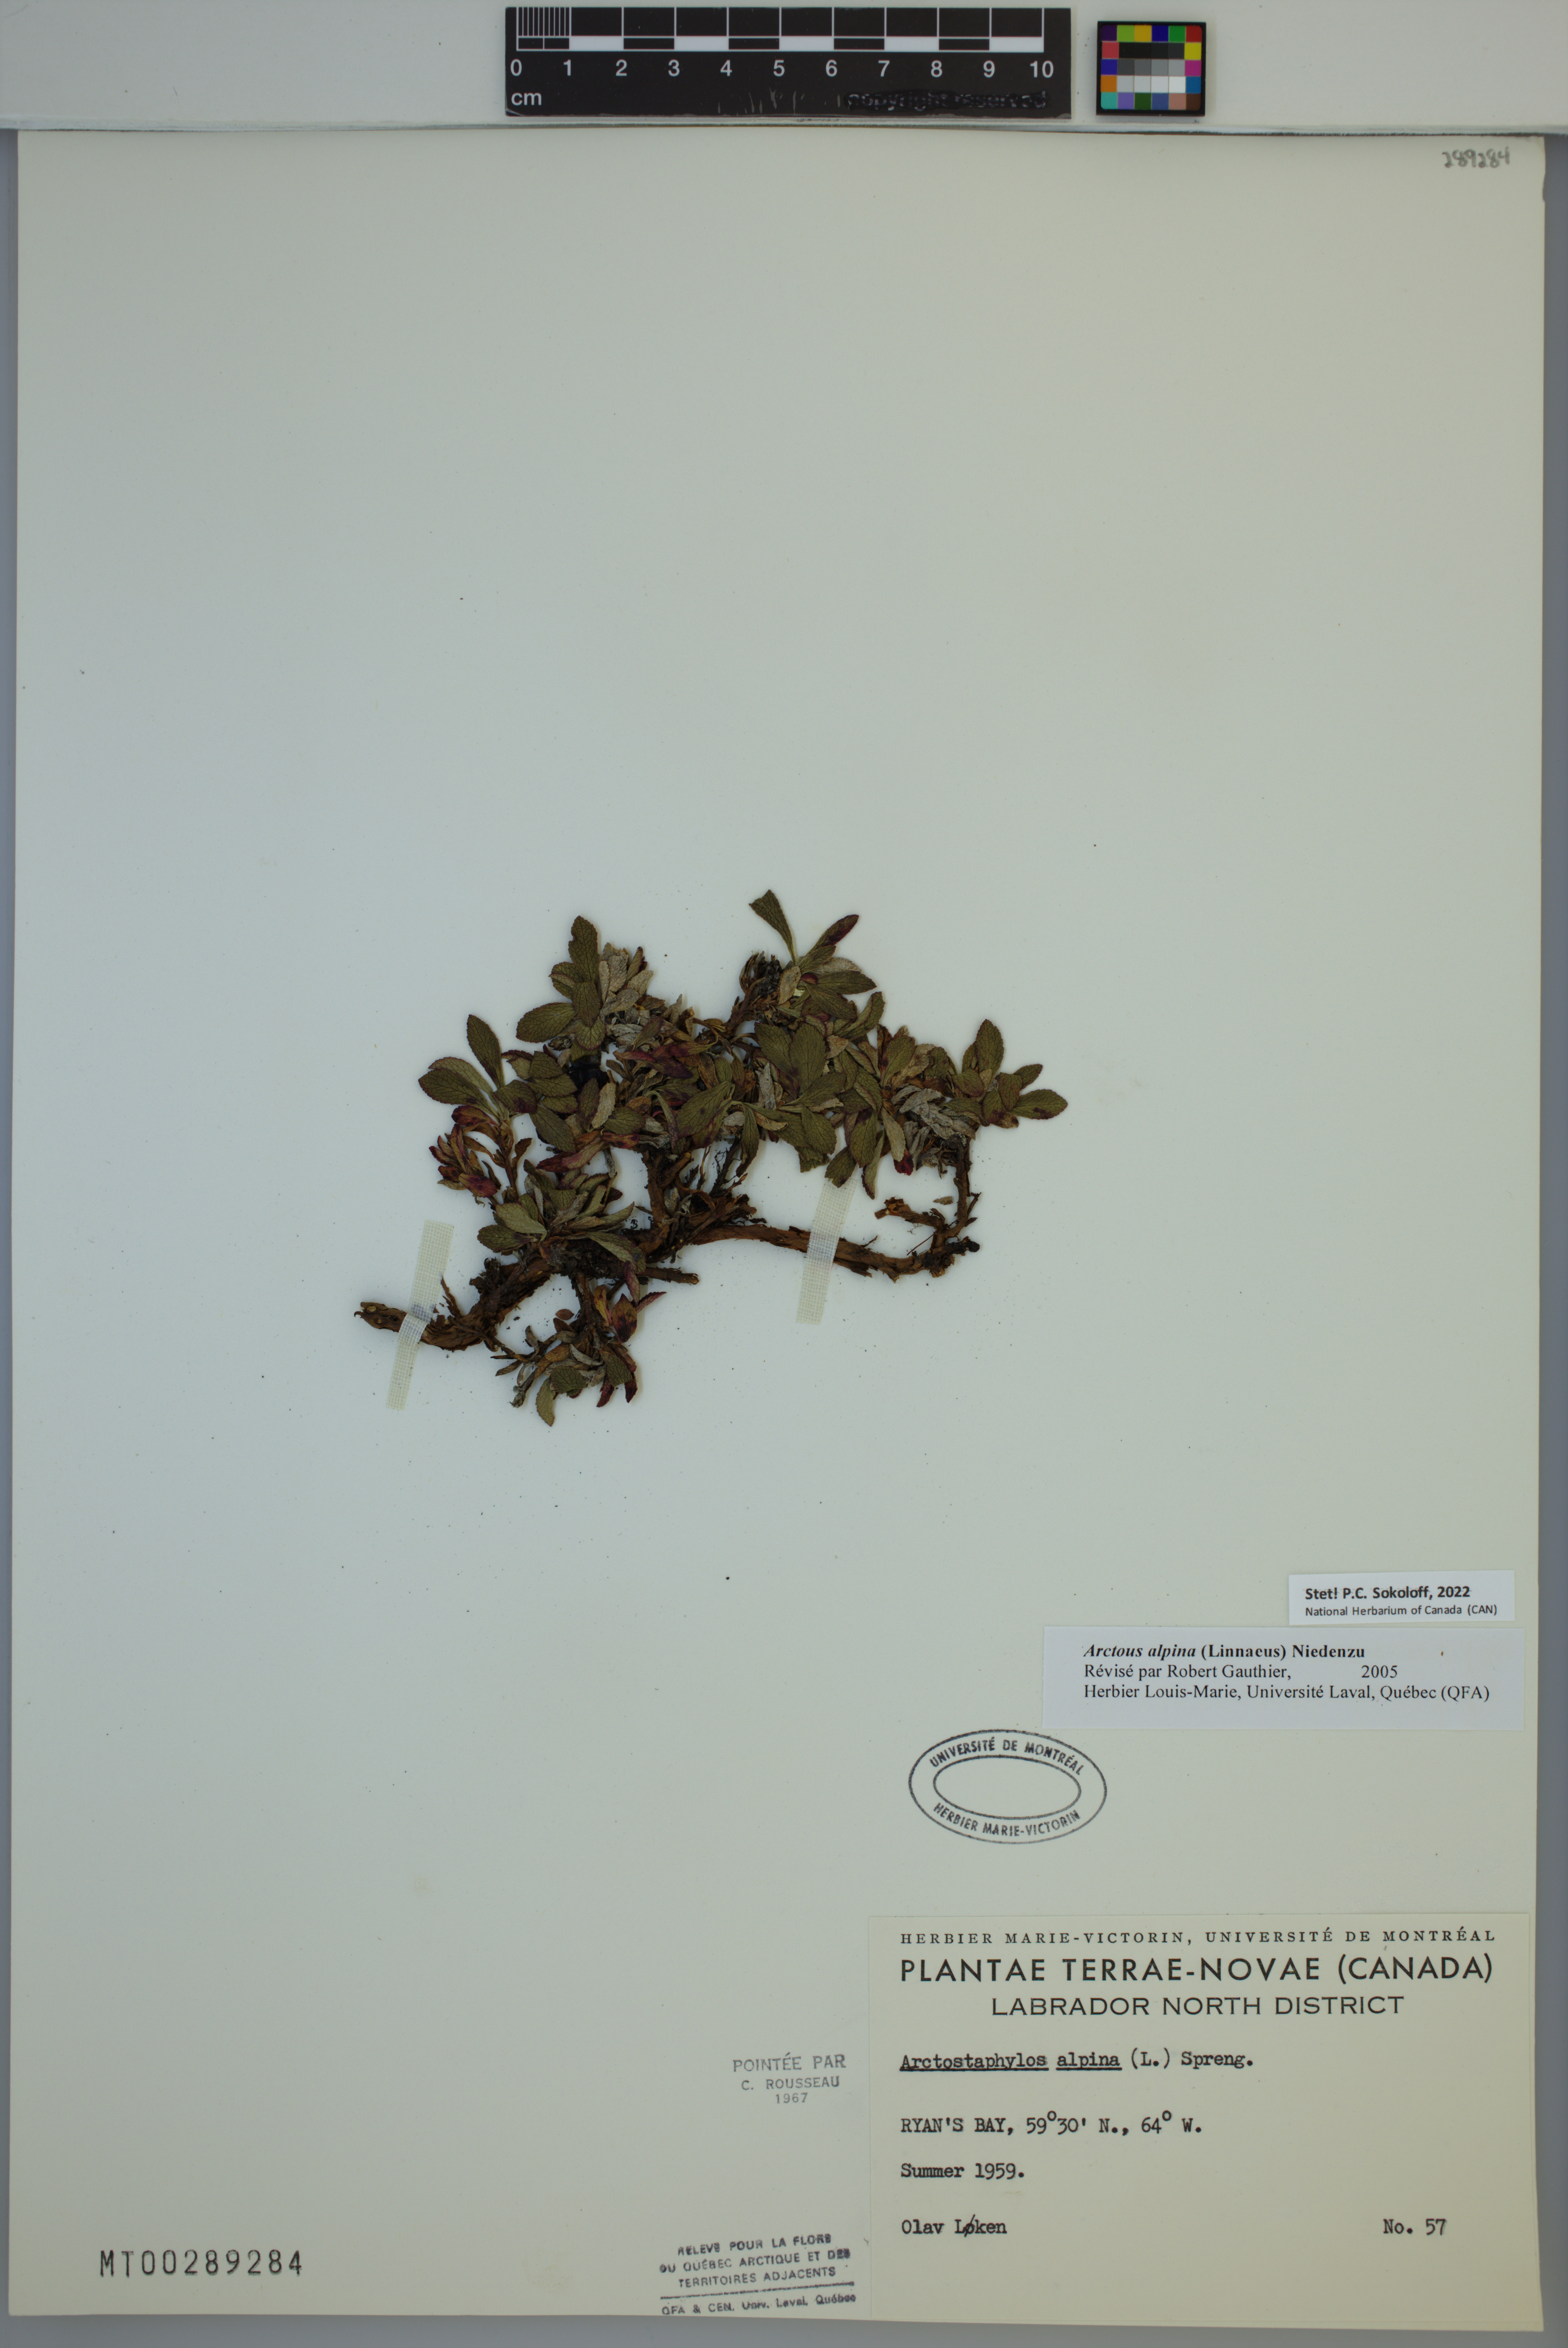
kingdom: Plantae
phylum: Tracheophyta
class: Magnoliopsida
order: Ericales
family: Ericaceae
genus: Arctostaphylos
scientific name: Arctostaphylos alpinus
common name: Alpine bearberry
